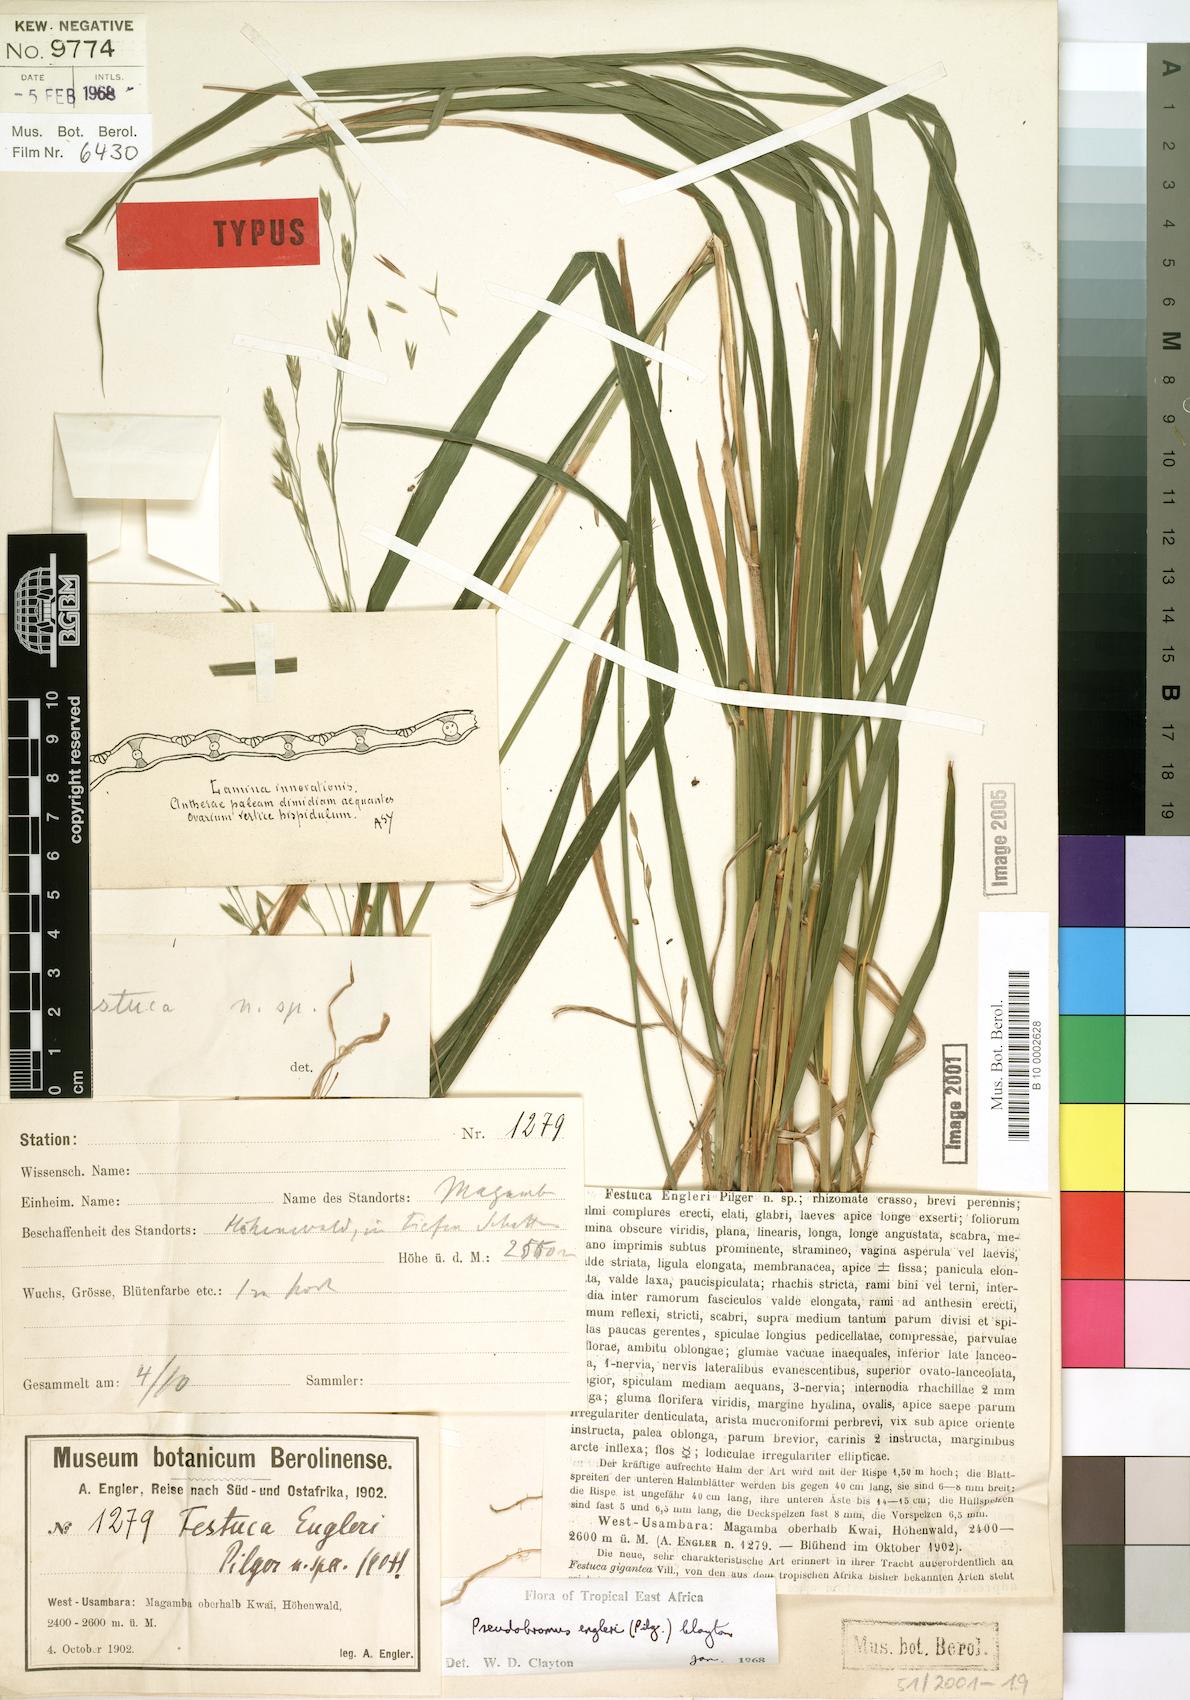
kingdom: Plantae
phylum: Tracheophyta
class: Liliopsida
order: Poales
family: Poaceae
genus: Pseudobromus
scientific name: Pseudobromus engleri
